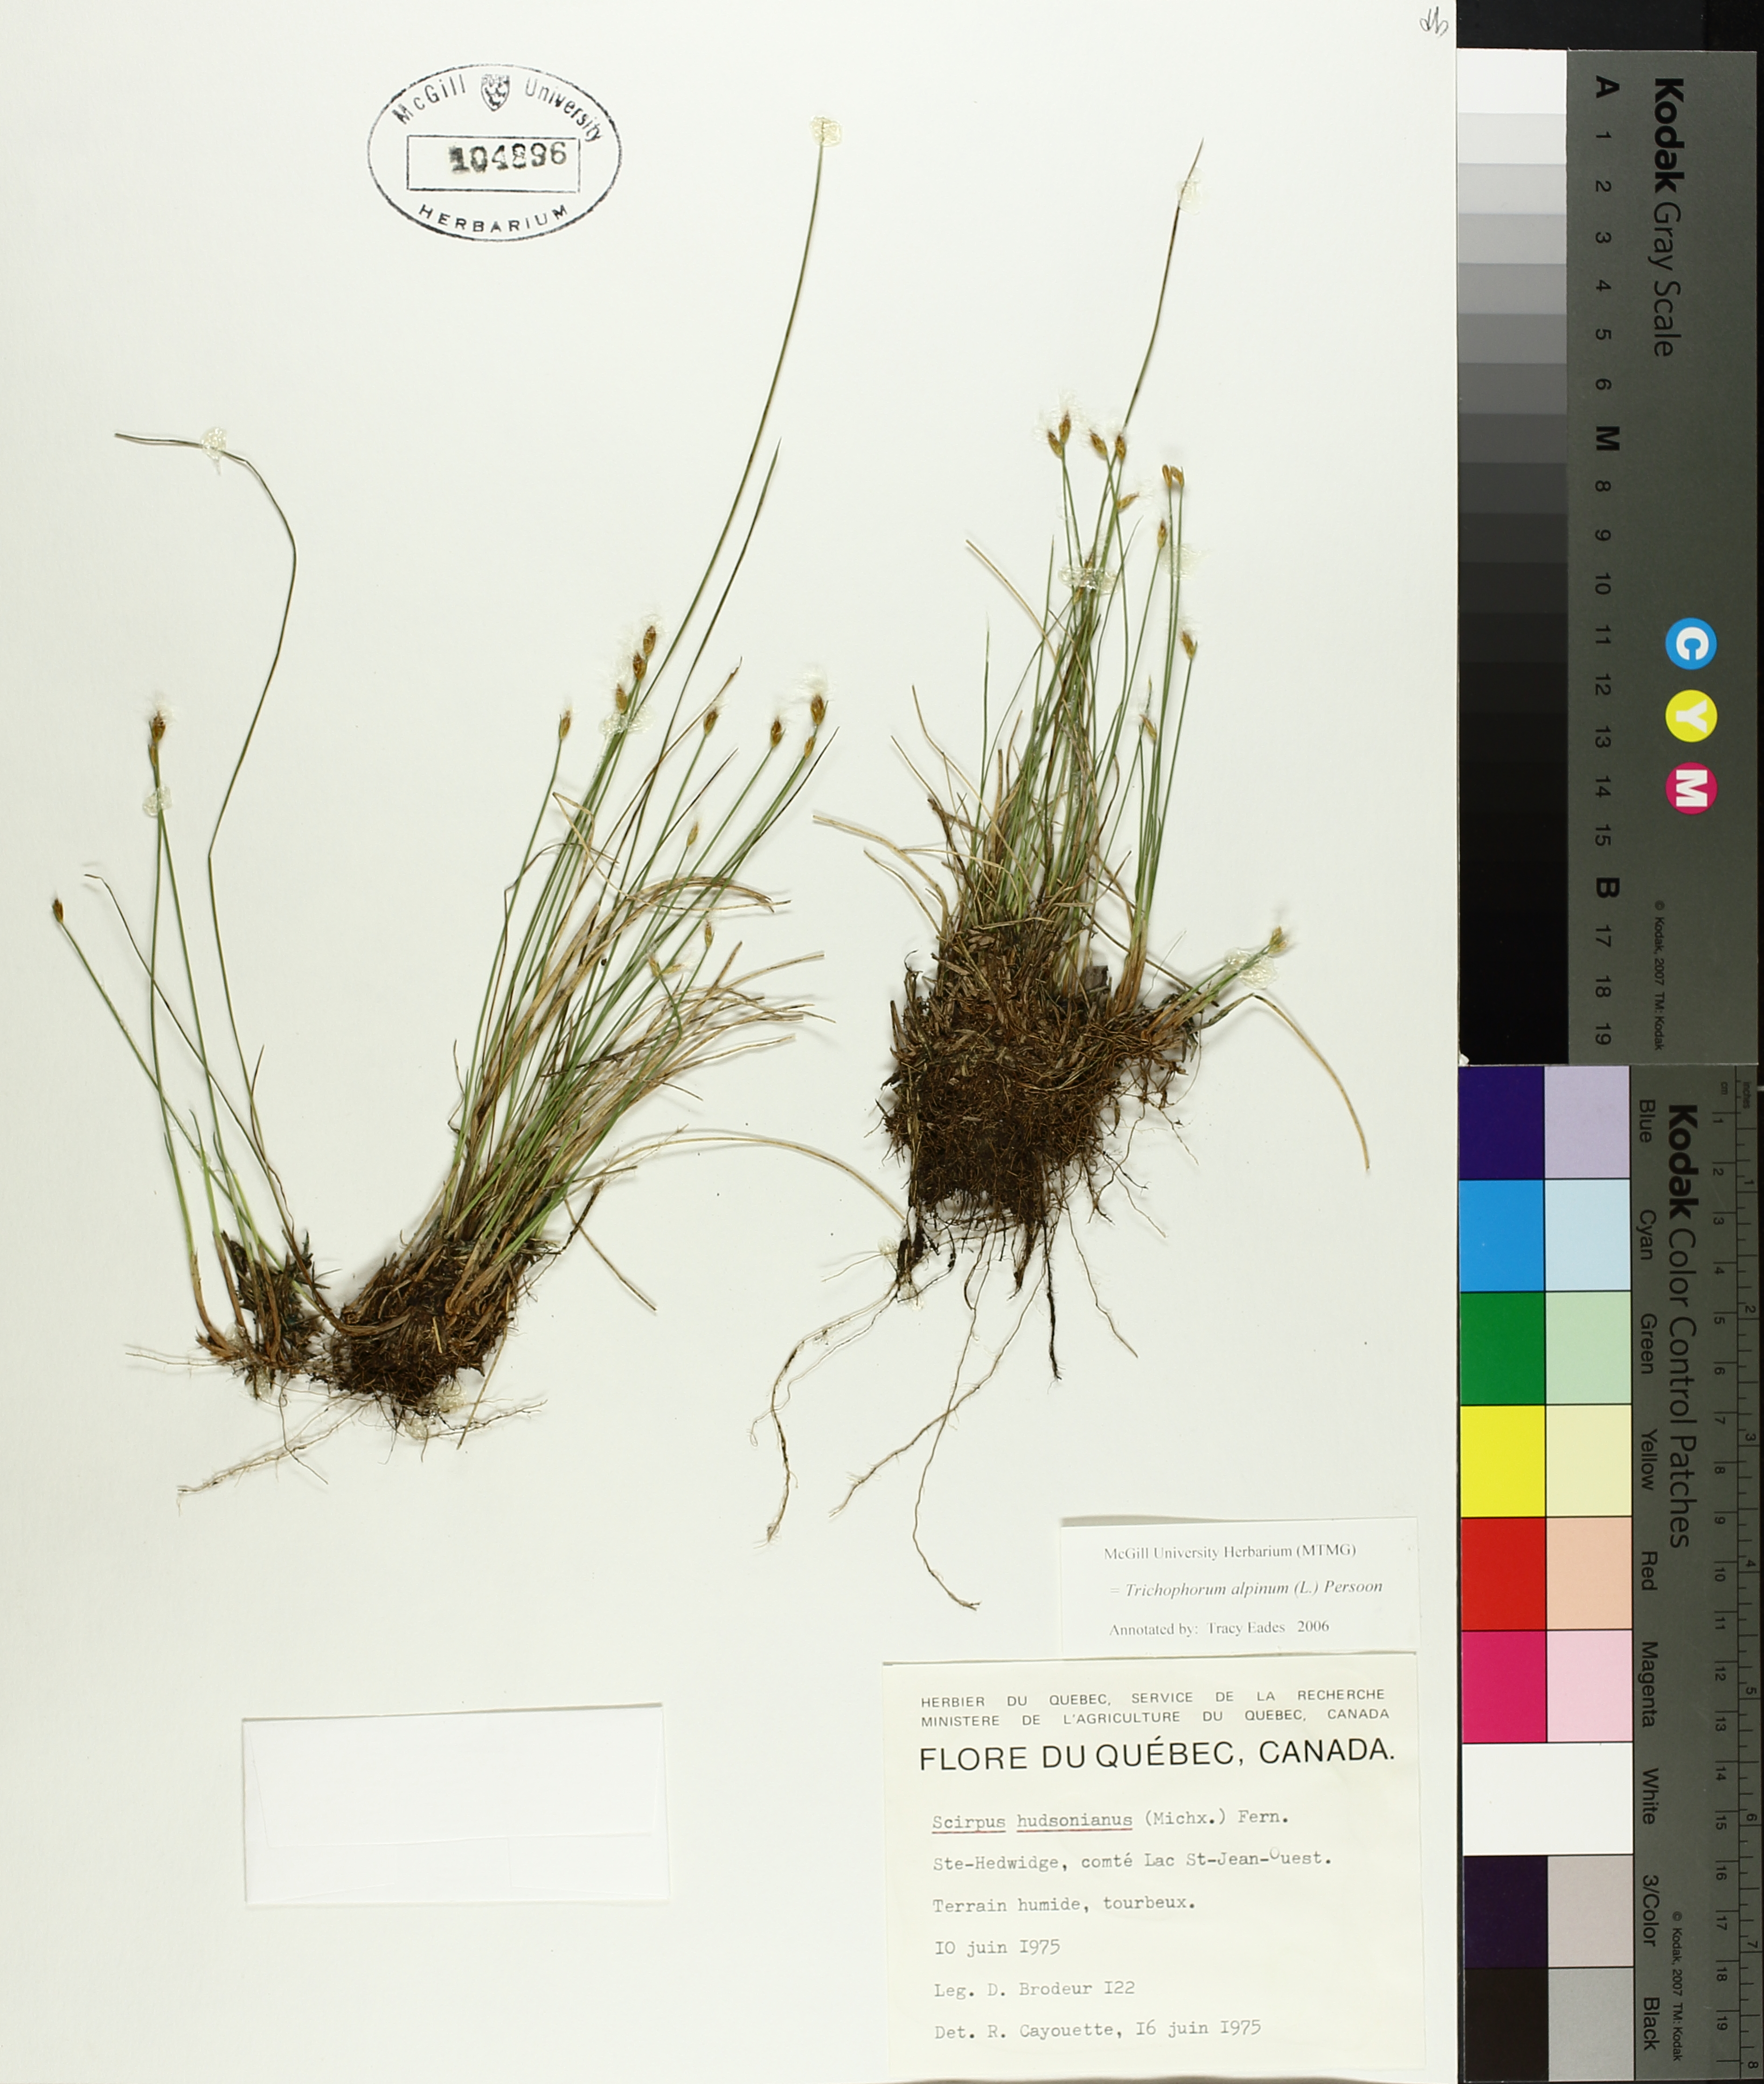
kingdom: Plantae
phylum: Tracheophyta
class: Liliopsida
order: Poales
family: Cyperaceae
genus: Trichophorum
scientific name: Trichophorum alpinum
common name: Alpine bulrush
